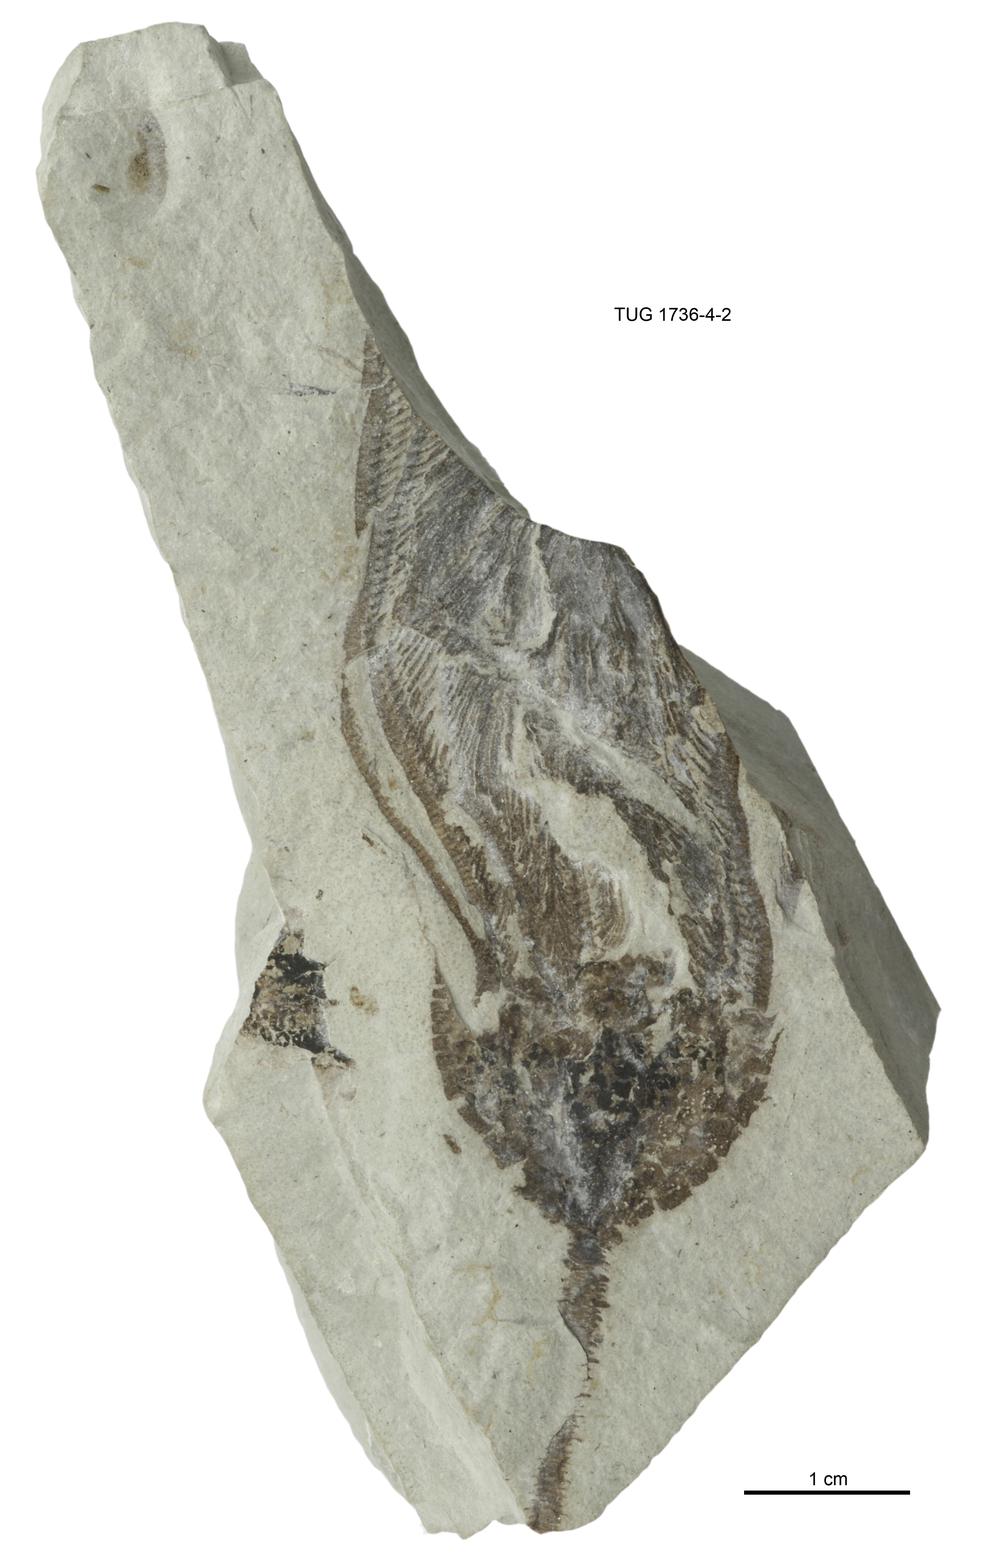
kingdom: Animalia
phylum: Echinodermata
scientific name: Echinodermata
